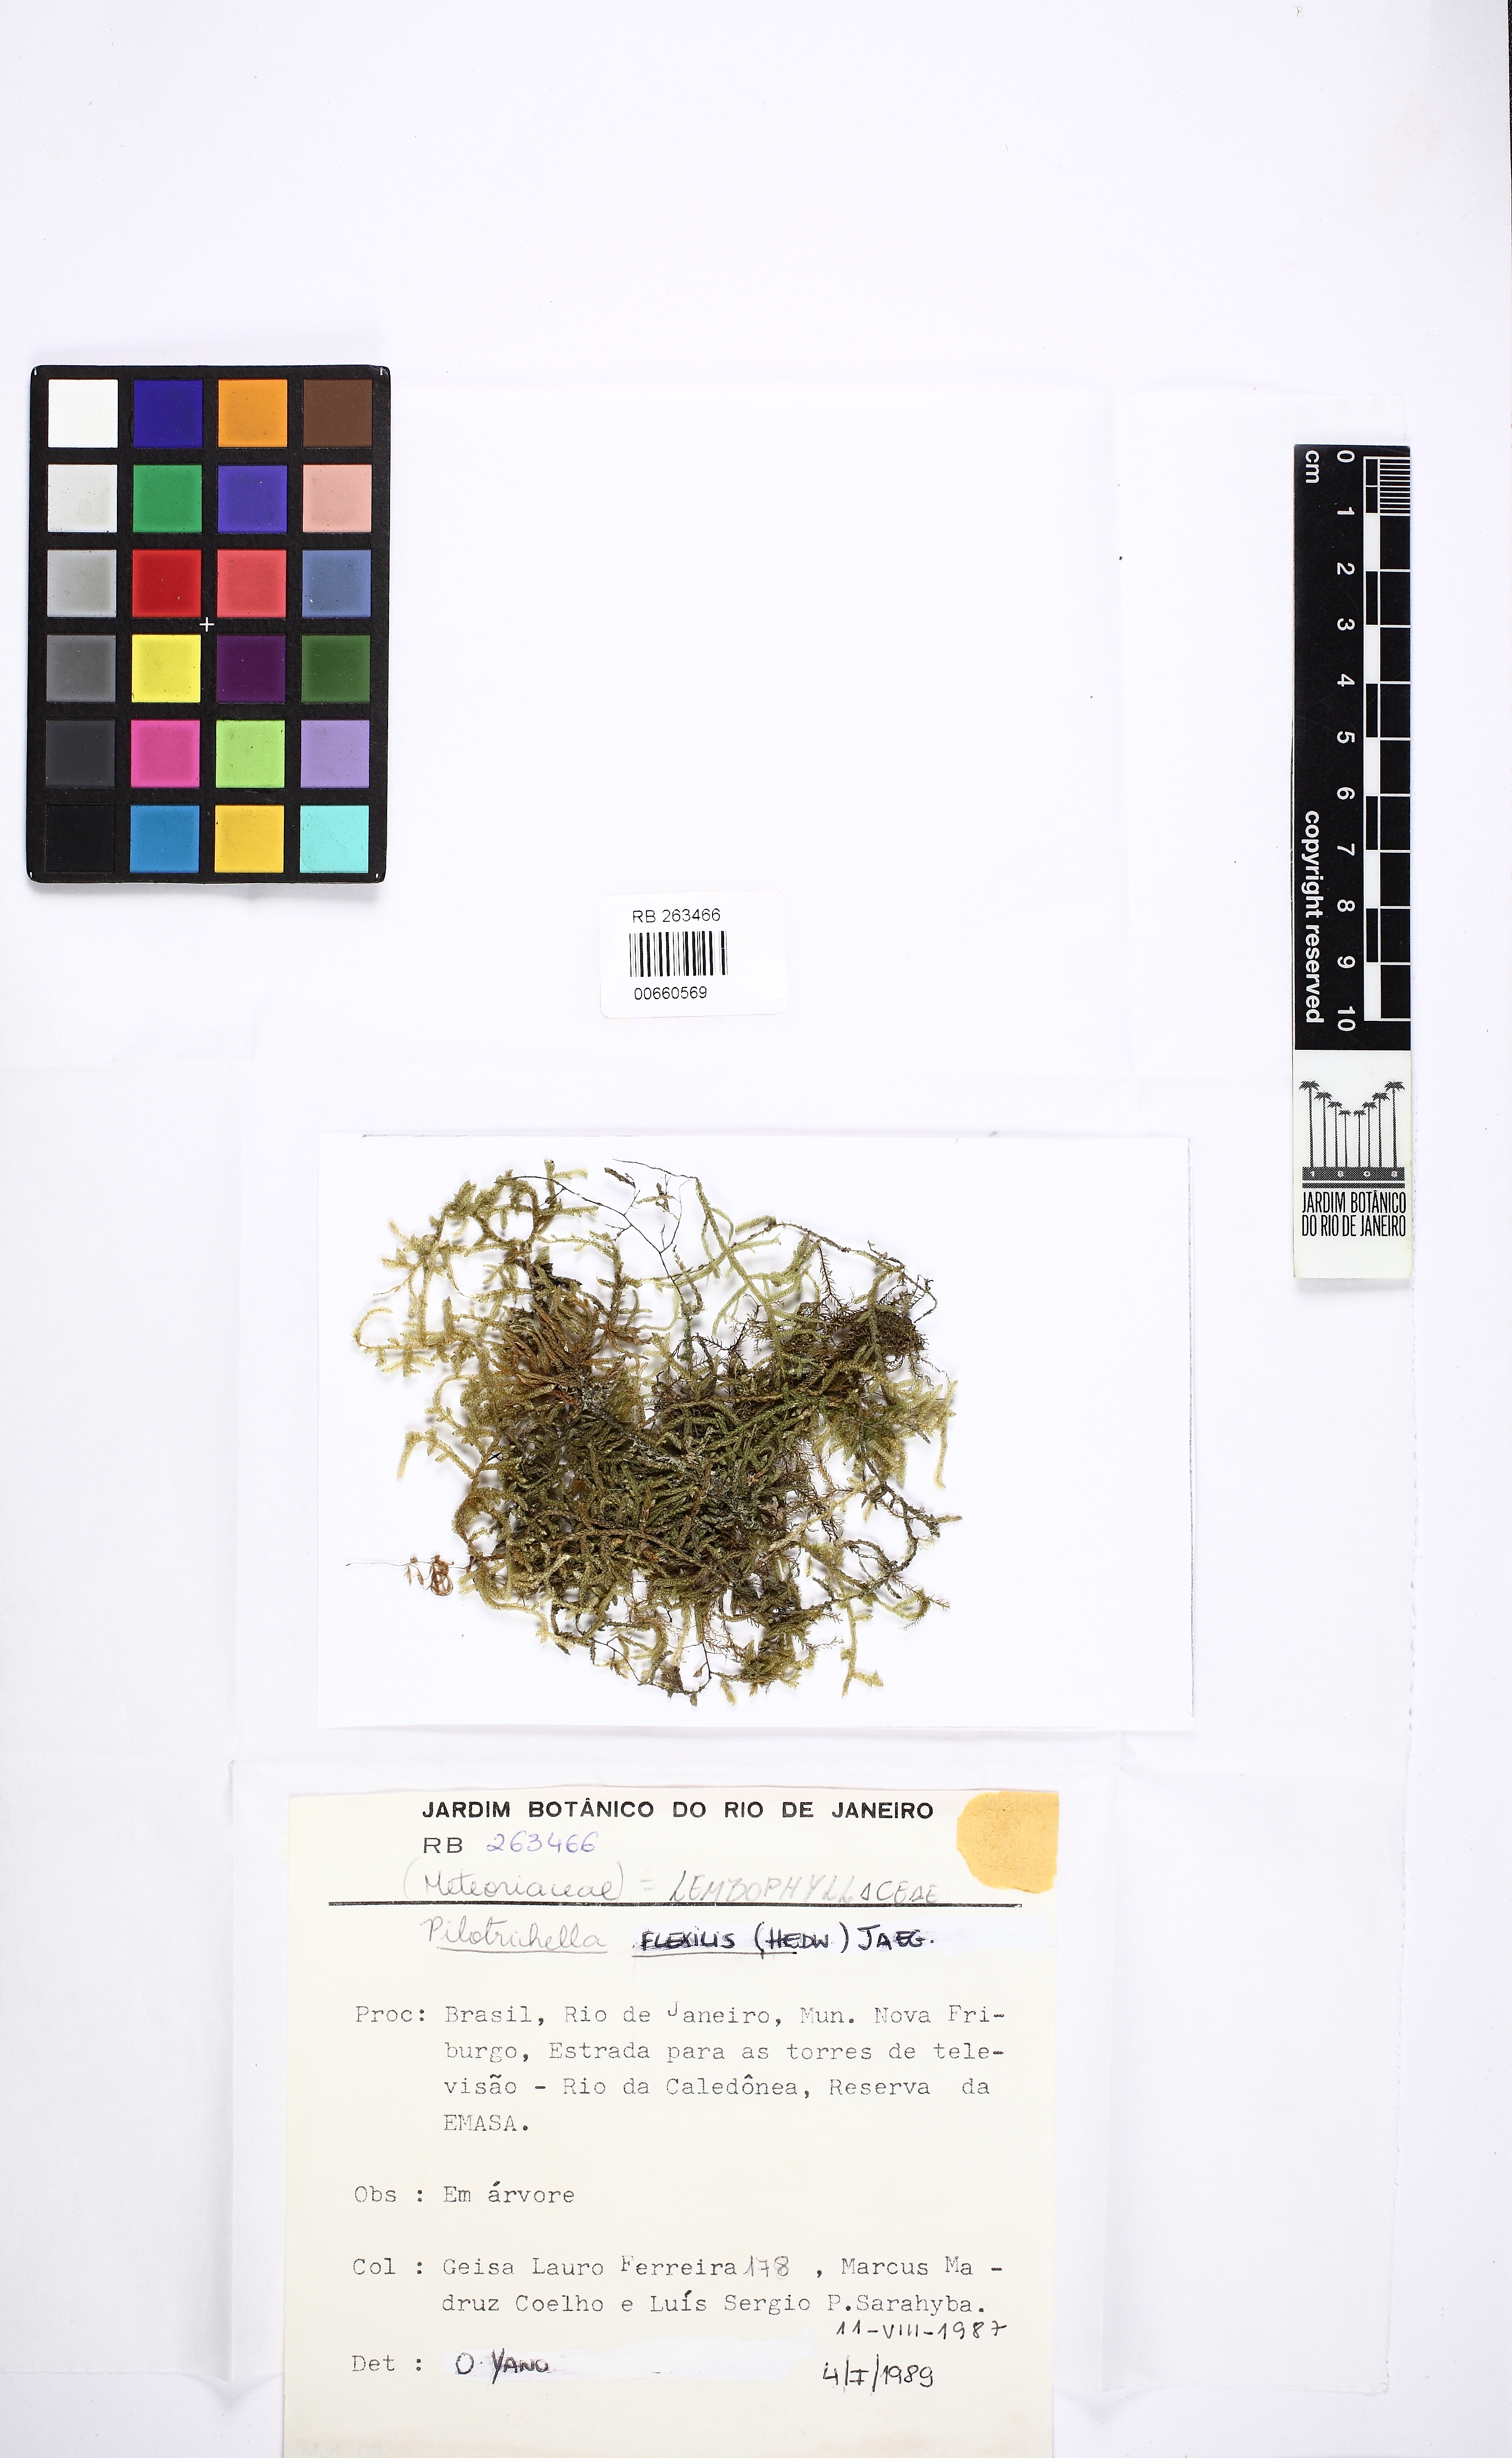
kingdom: Plantae
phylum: Bryophyta
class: Bryopsida
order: Hypnales
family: Lembophyllaceae
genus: Pilotrichella
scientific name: Pilotrichella flexilis
